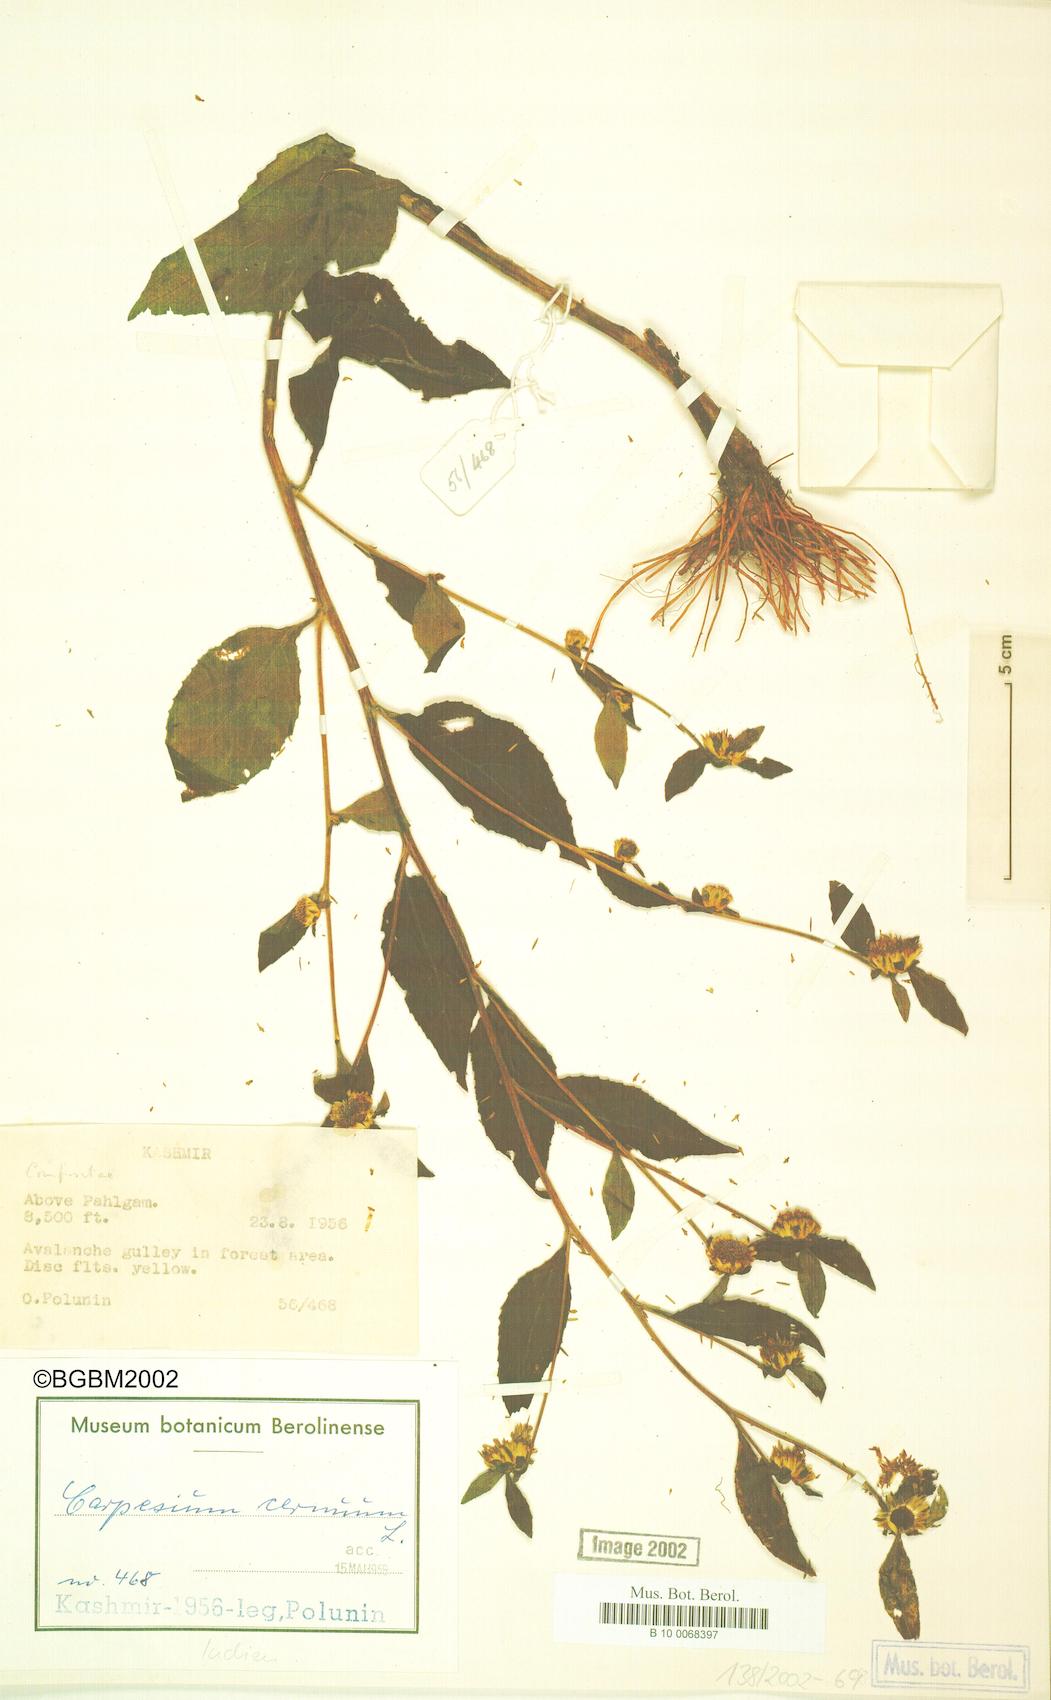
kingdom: Plantae
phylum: Tracheophyta
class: Magnoliopsida
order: Asterales
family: Asteraceae
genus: Carpesium
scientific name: Carpesium cernuum
